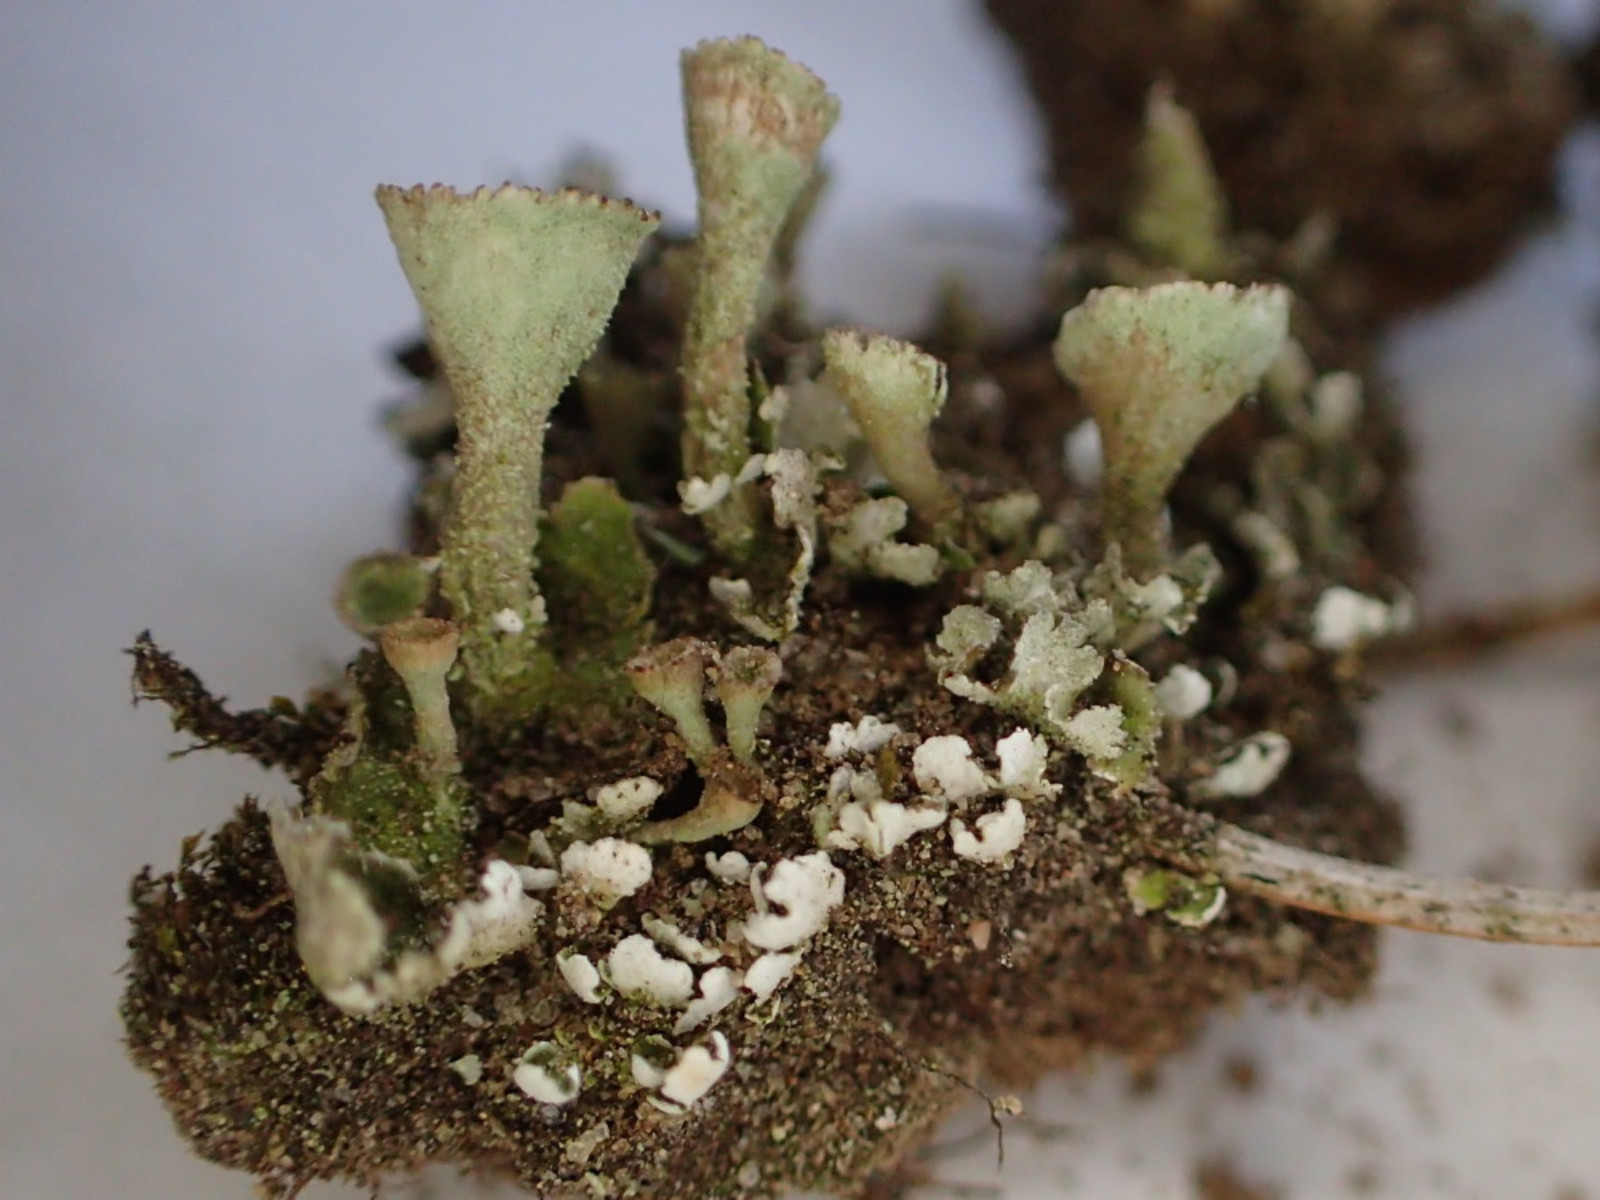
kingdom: Fungi
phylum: Ascomycota
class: Lecanoromycetes
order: Lecanorales
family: Cladoniaceae
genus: Cladonia
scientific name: Cladonia humilis
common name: lav bægerlav
